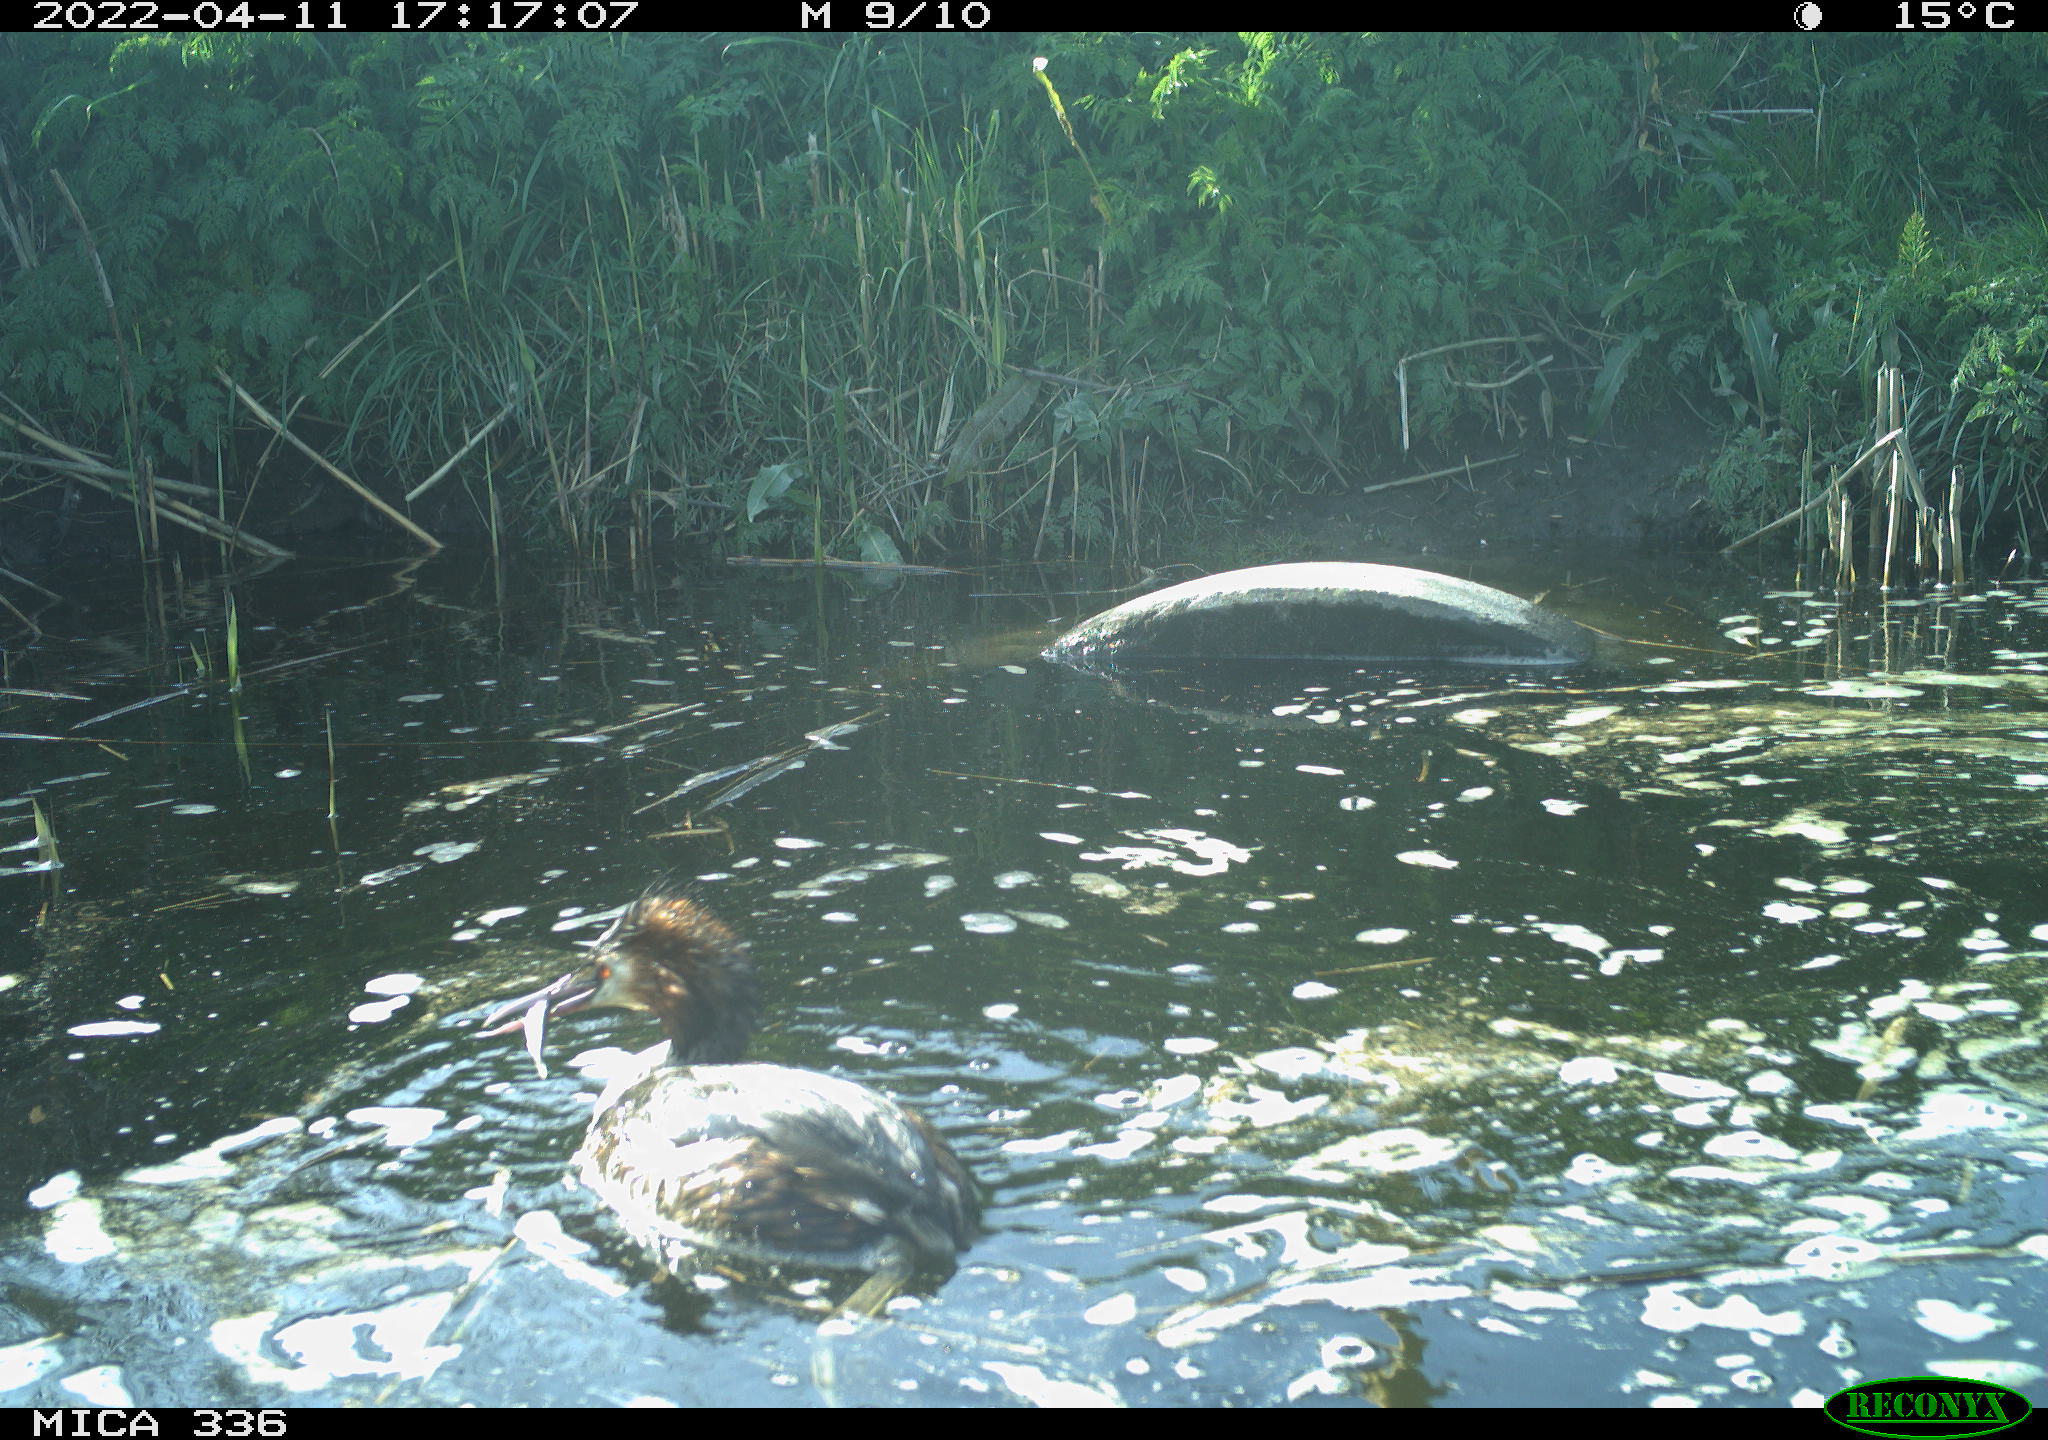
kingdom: Animalia
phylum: Chordata
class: Aves
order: Podicipediformes
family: Podicipedidae
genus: Podiceps
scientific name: Podiceps cristatus
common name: Great crested grebe
